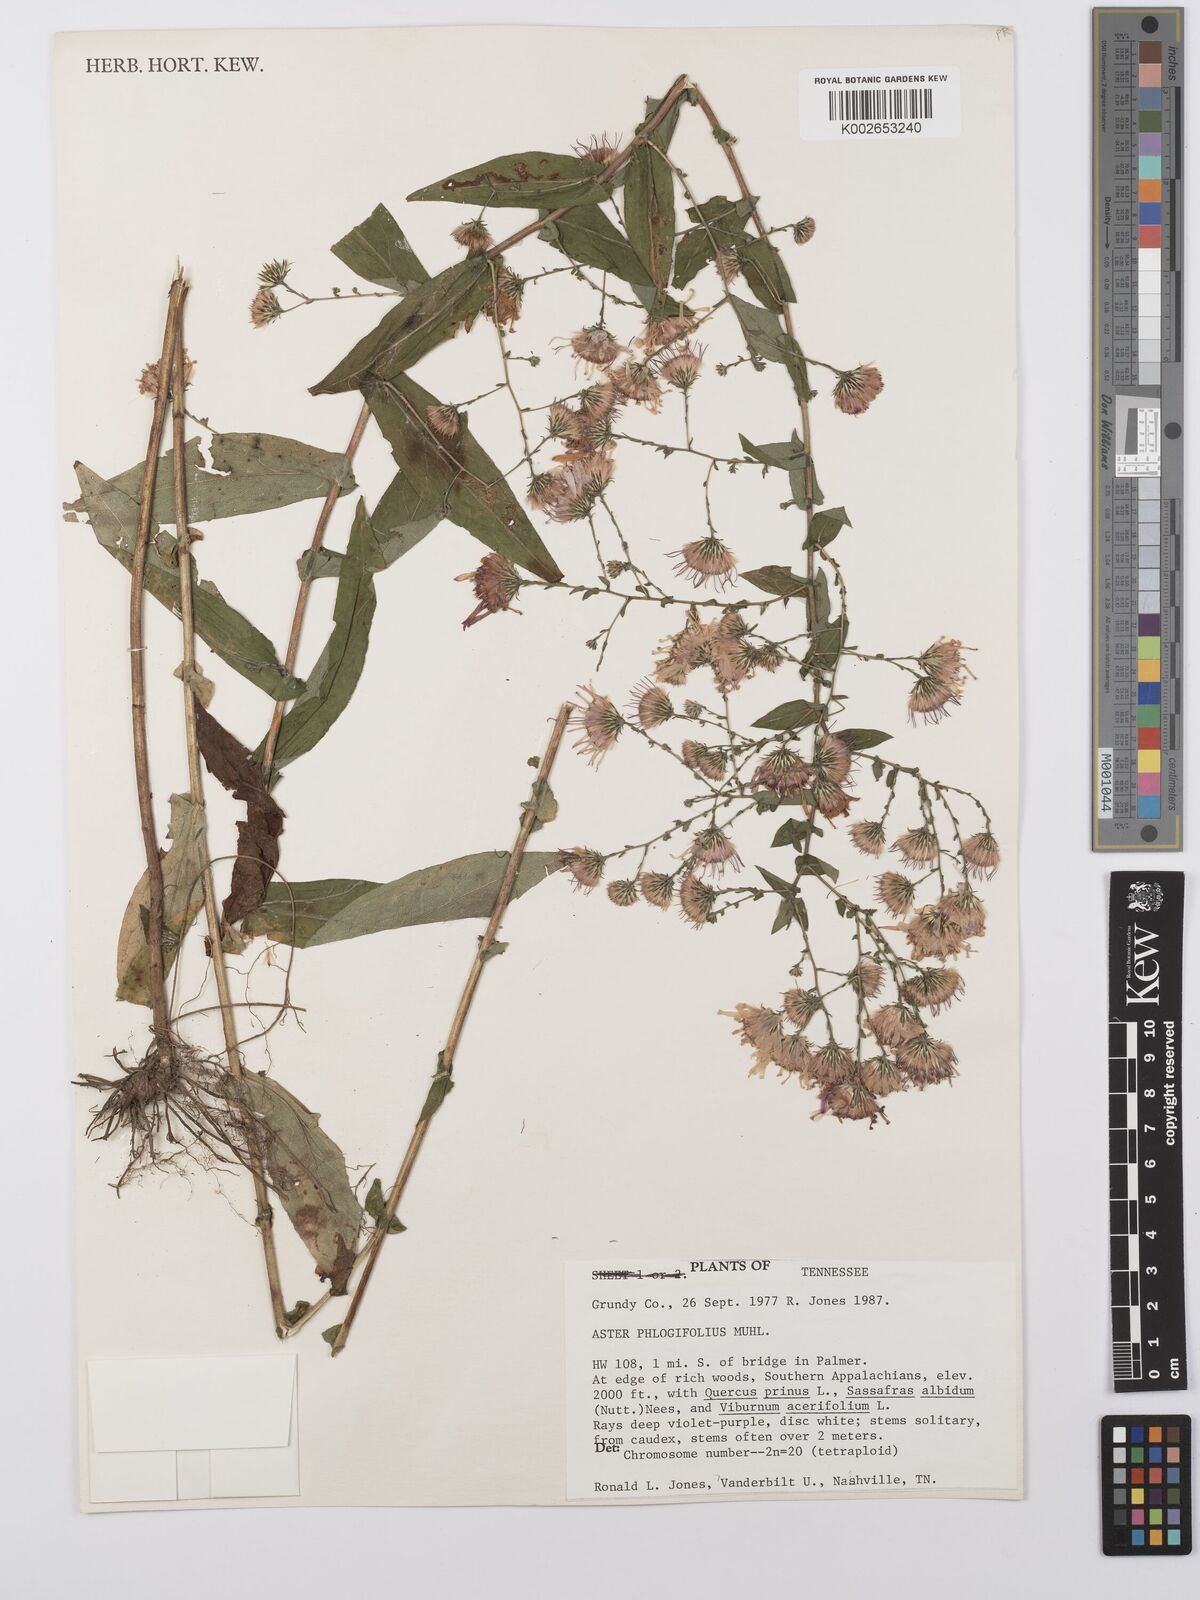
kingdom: Plantae
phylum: Tracheophyta
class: Magnoliopsida
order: Asterales
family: Asteraceae
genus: Symphyotrichum
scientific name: Symphyotrichum phlogifolium
